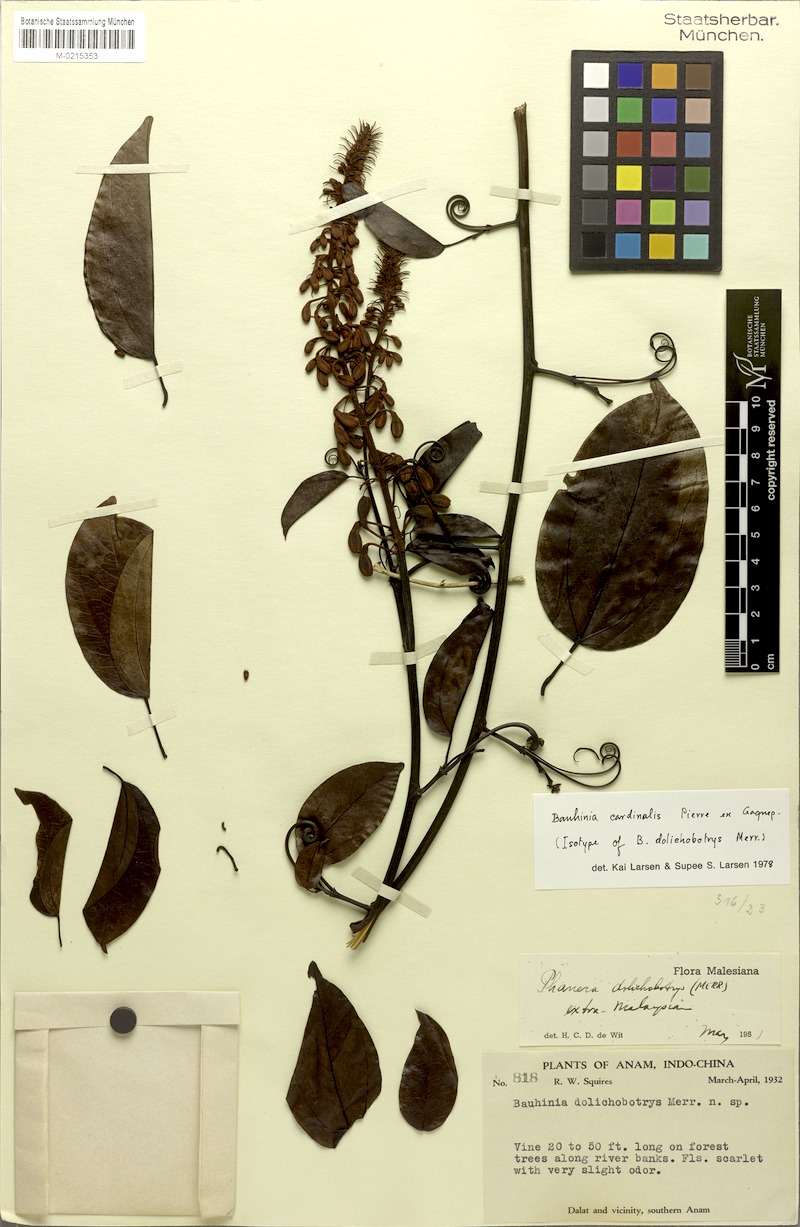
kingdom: Plantae
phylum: Tracheophyta
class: Magnoliopsida
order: Fabales
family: Fabaceae
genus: Phanera
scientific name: Phanera cardinalis
